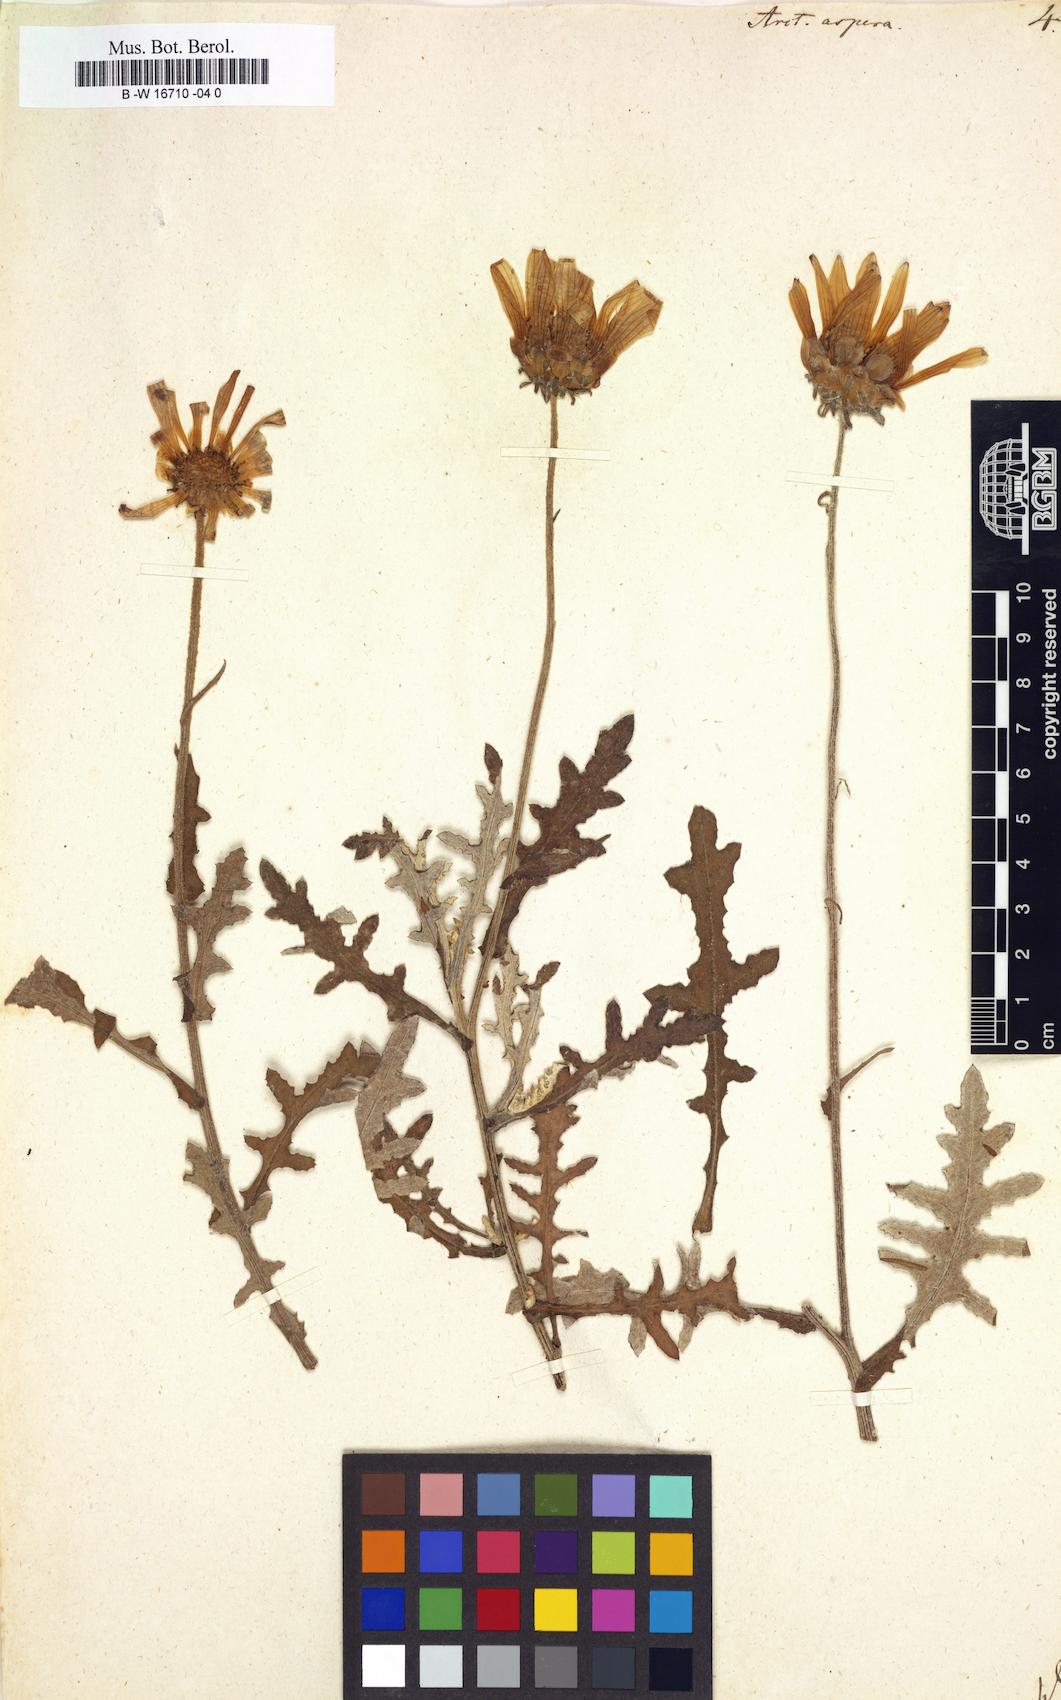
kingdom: Plantae
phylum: Tracheophyta
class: Magnoliopsida
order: Asterales
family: Asteraceae
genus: Arctotis
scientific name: Arctotis aspera
